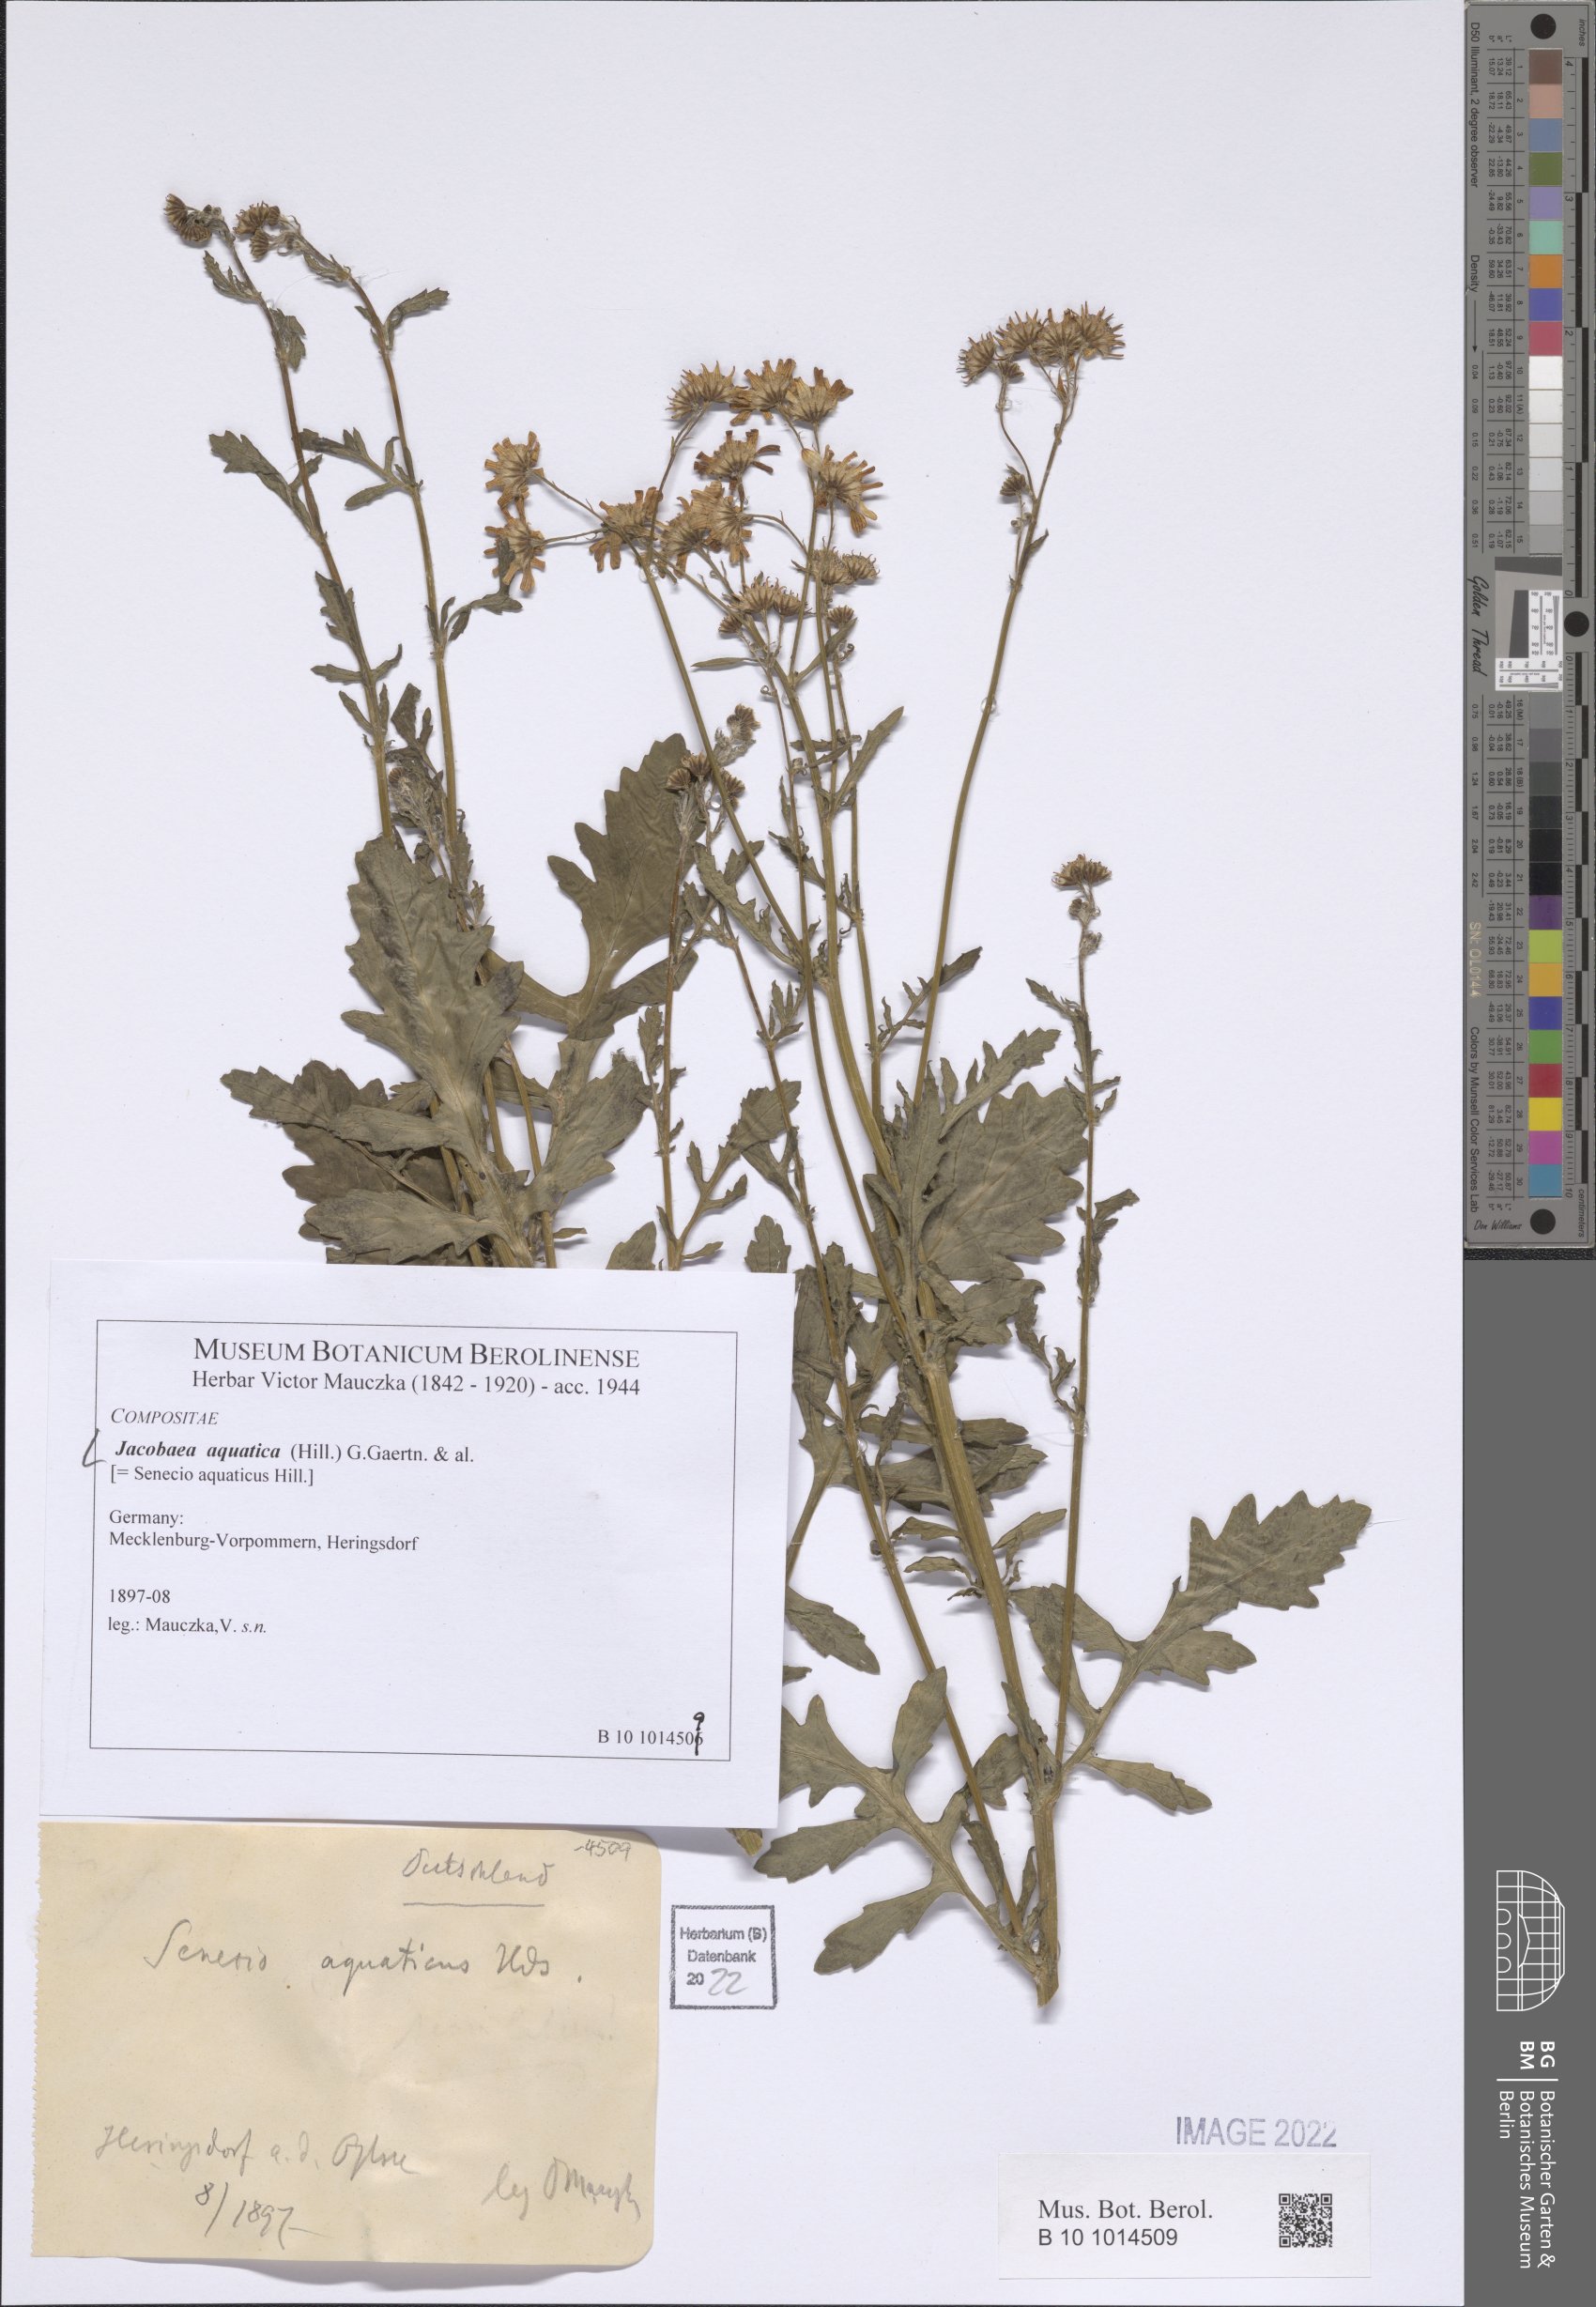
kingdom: Plantae
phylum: Tracheophyta
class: Magnoliopsida
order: Asterales
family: Asteraceae
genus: Jacobaea
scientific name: Jacobaea aquatica
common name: Water ragwort
